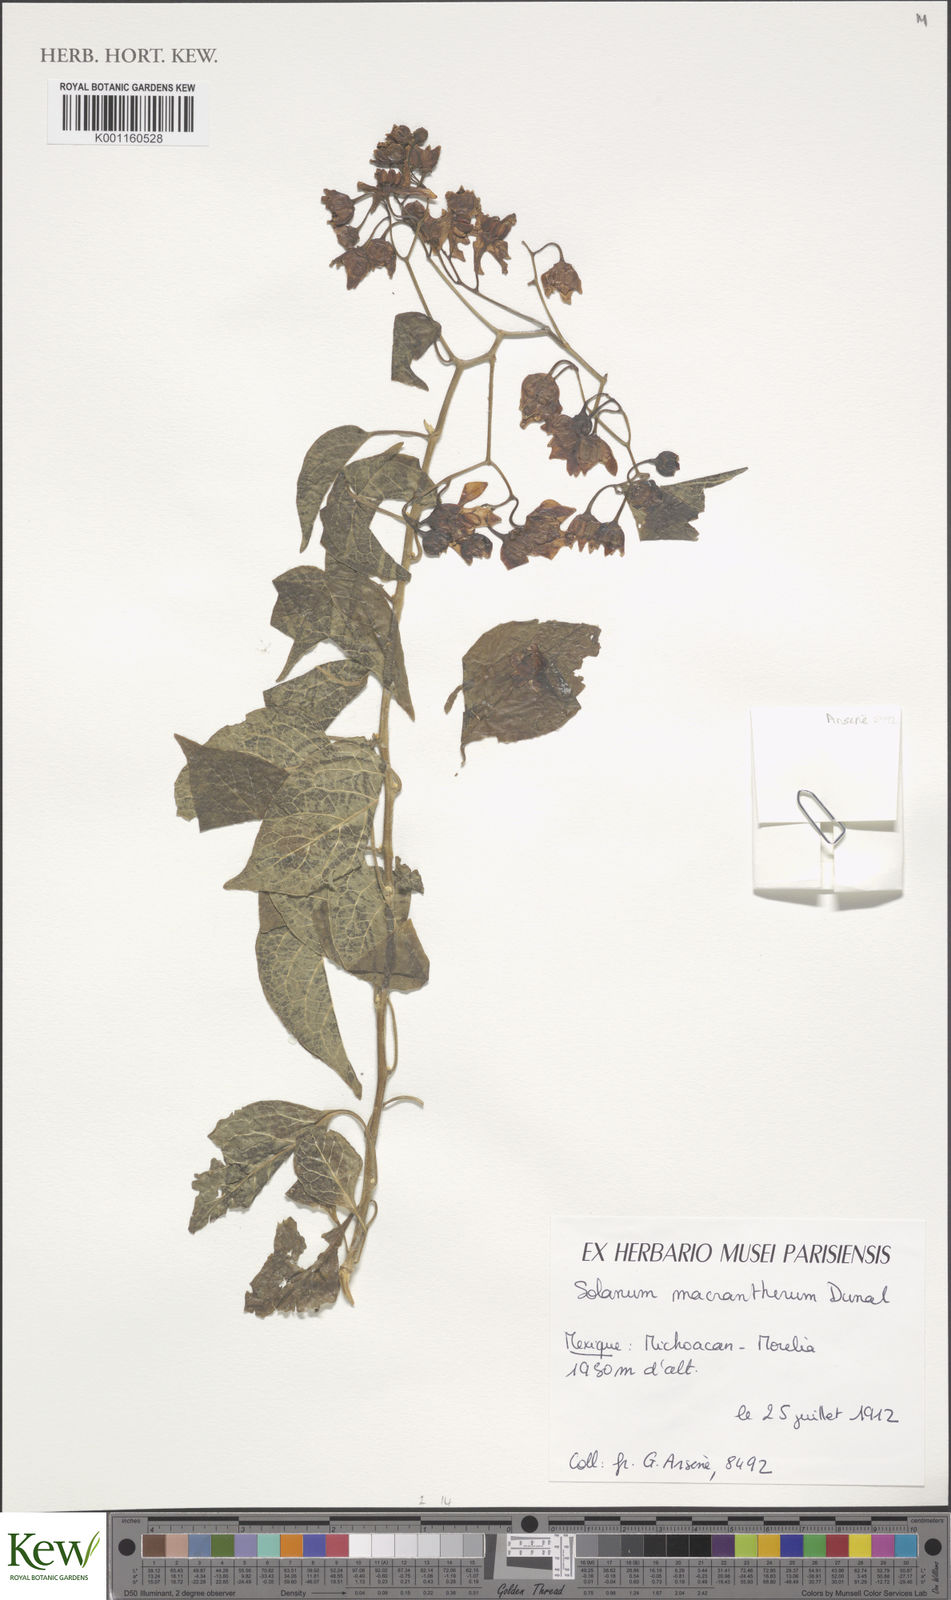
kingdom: Plantae
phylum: Tracheophyta
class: Magnoliopsida
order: Solanales
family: Solanaceae
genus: Solanum
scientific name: Solanum dulcamaroides
